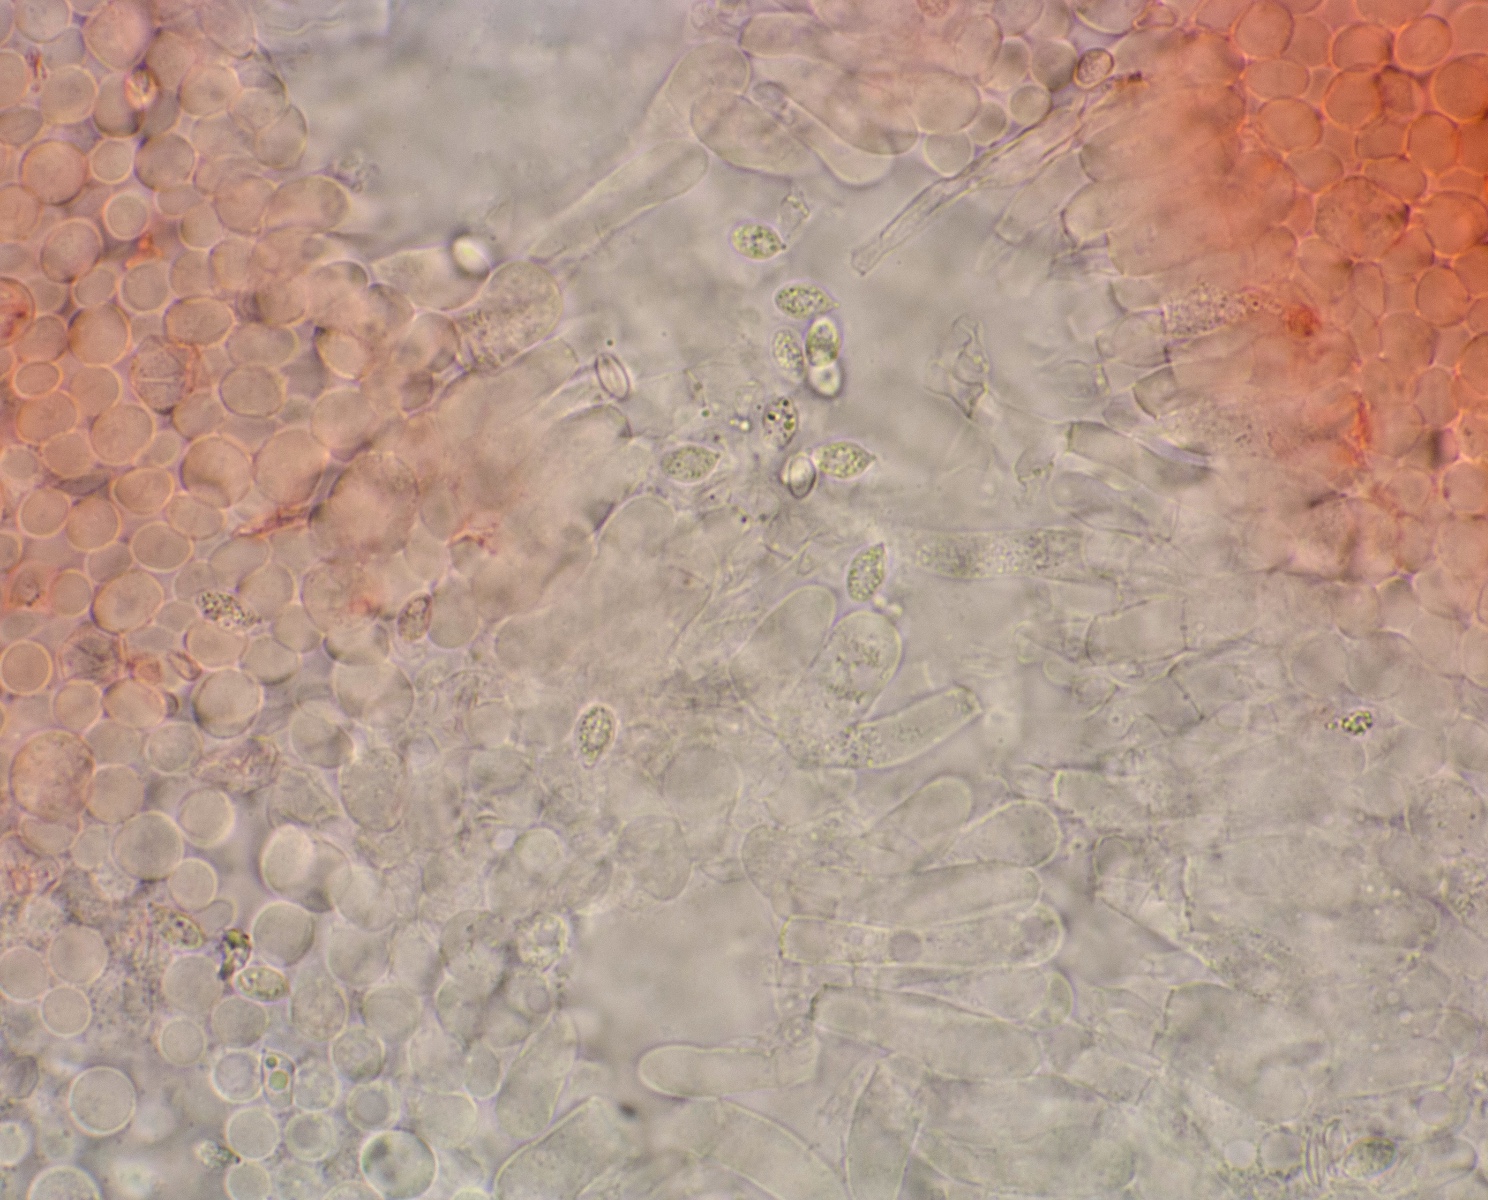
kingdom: Fungi
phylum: Basidiomycota
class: Agaricomycetes
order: Agaricales
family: Entolomataceae
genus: Clitopilus
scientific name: Clitopilus scyphoides
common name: spinkel melhat
